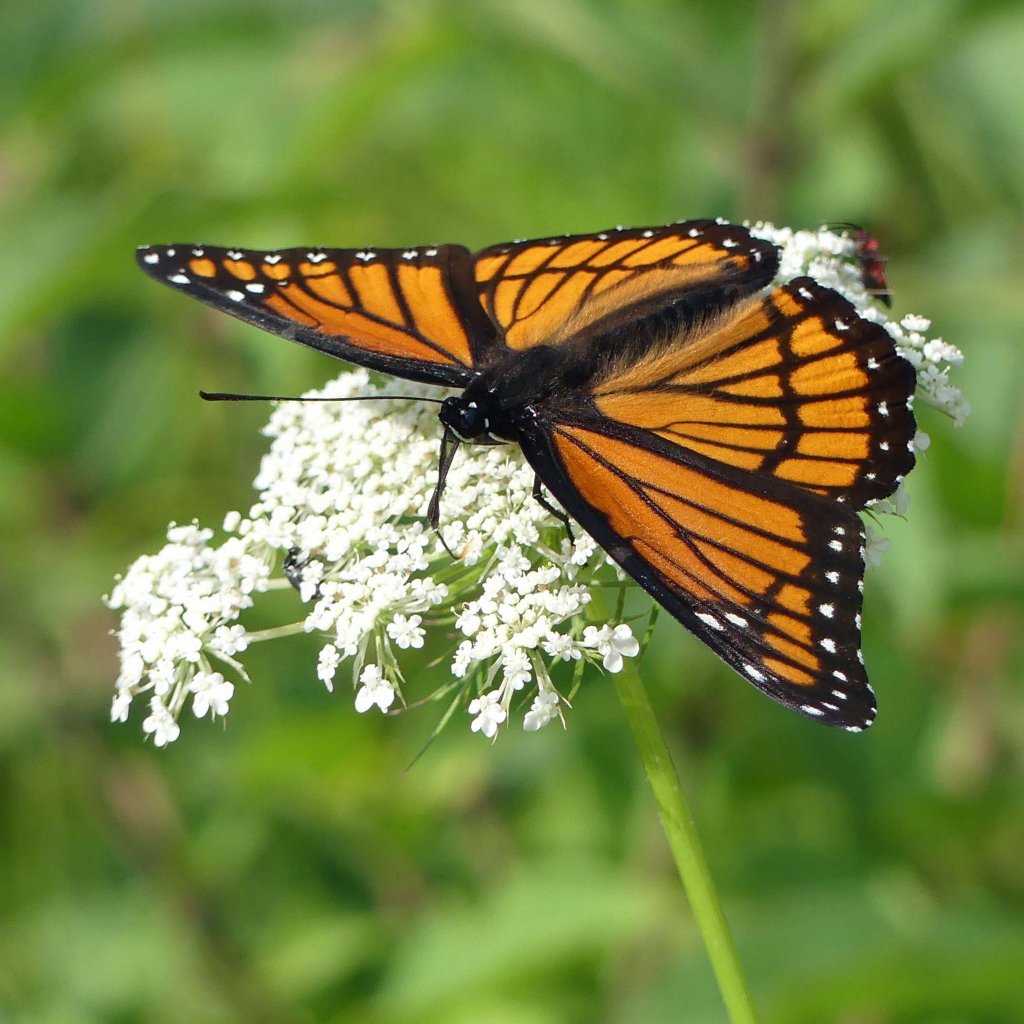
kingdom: Animalia
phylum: Arthropoda
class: Insecta
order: Lepidoptera
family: Nymphalidae
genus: Limenitis
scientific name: Limenitis archippus
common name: Viceroy
